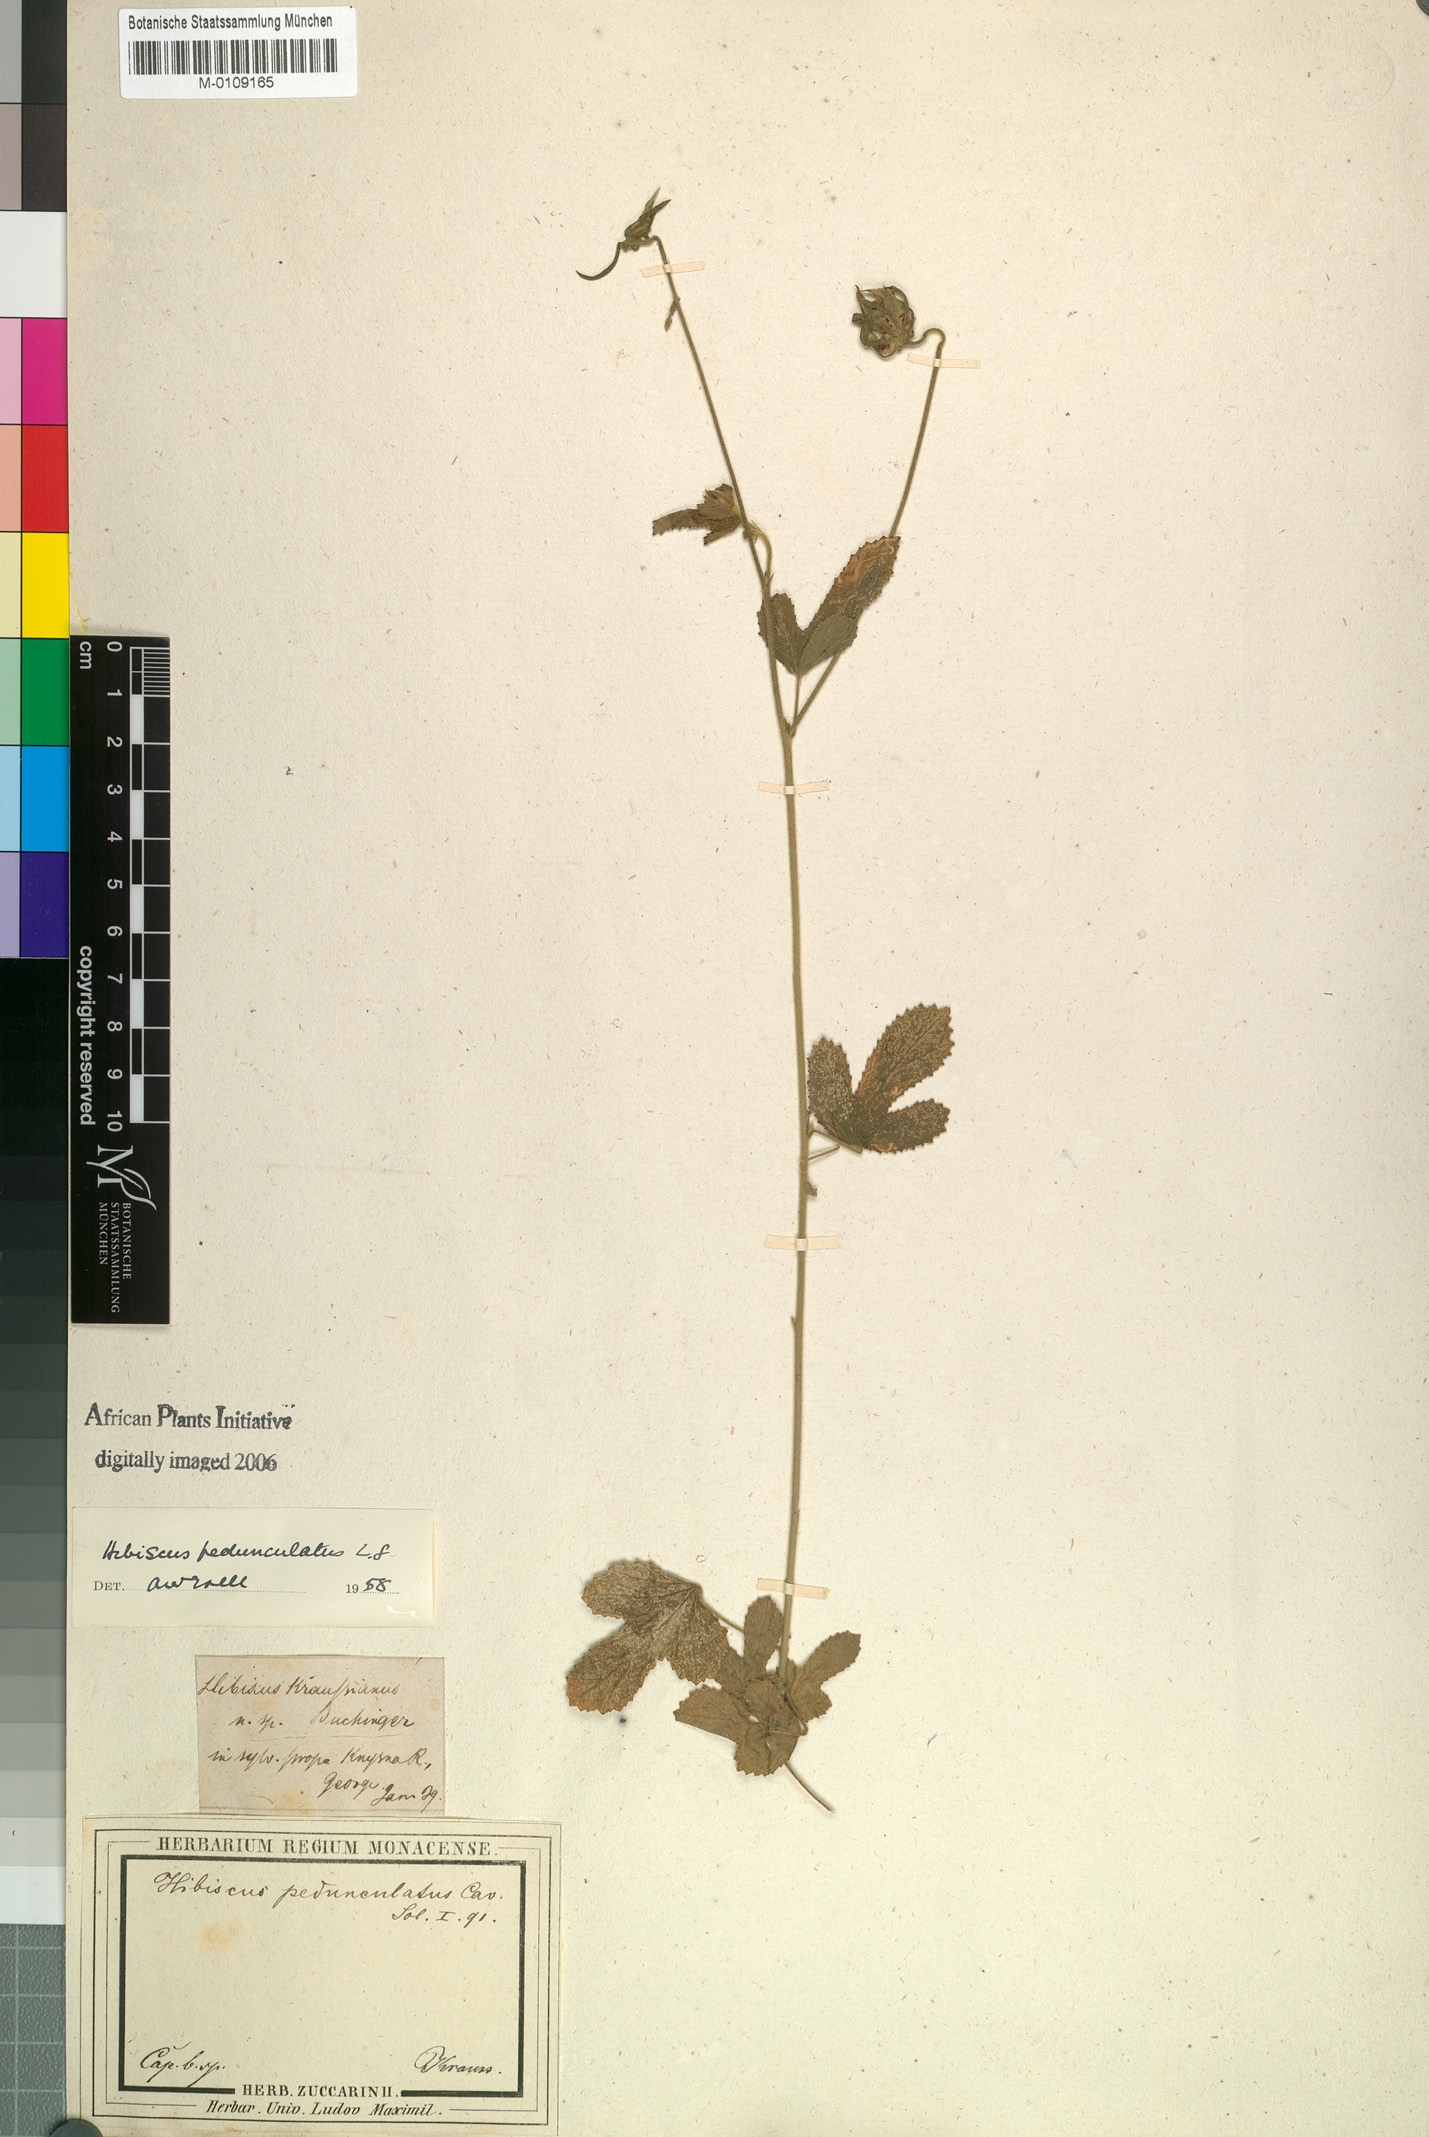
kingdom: Plantae
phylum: Tracheophyta
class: Magnoliopsida
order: Malvales
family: Malvaceae
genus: Hibiscus
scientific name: Hibiscus pedunculatus
